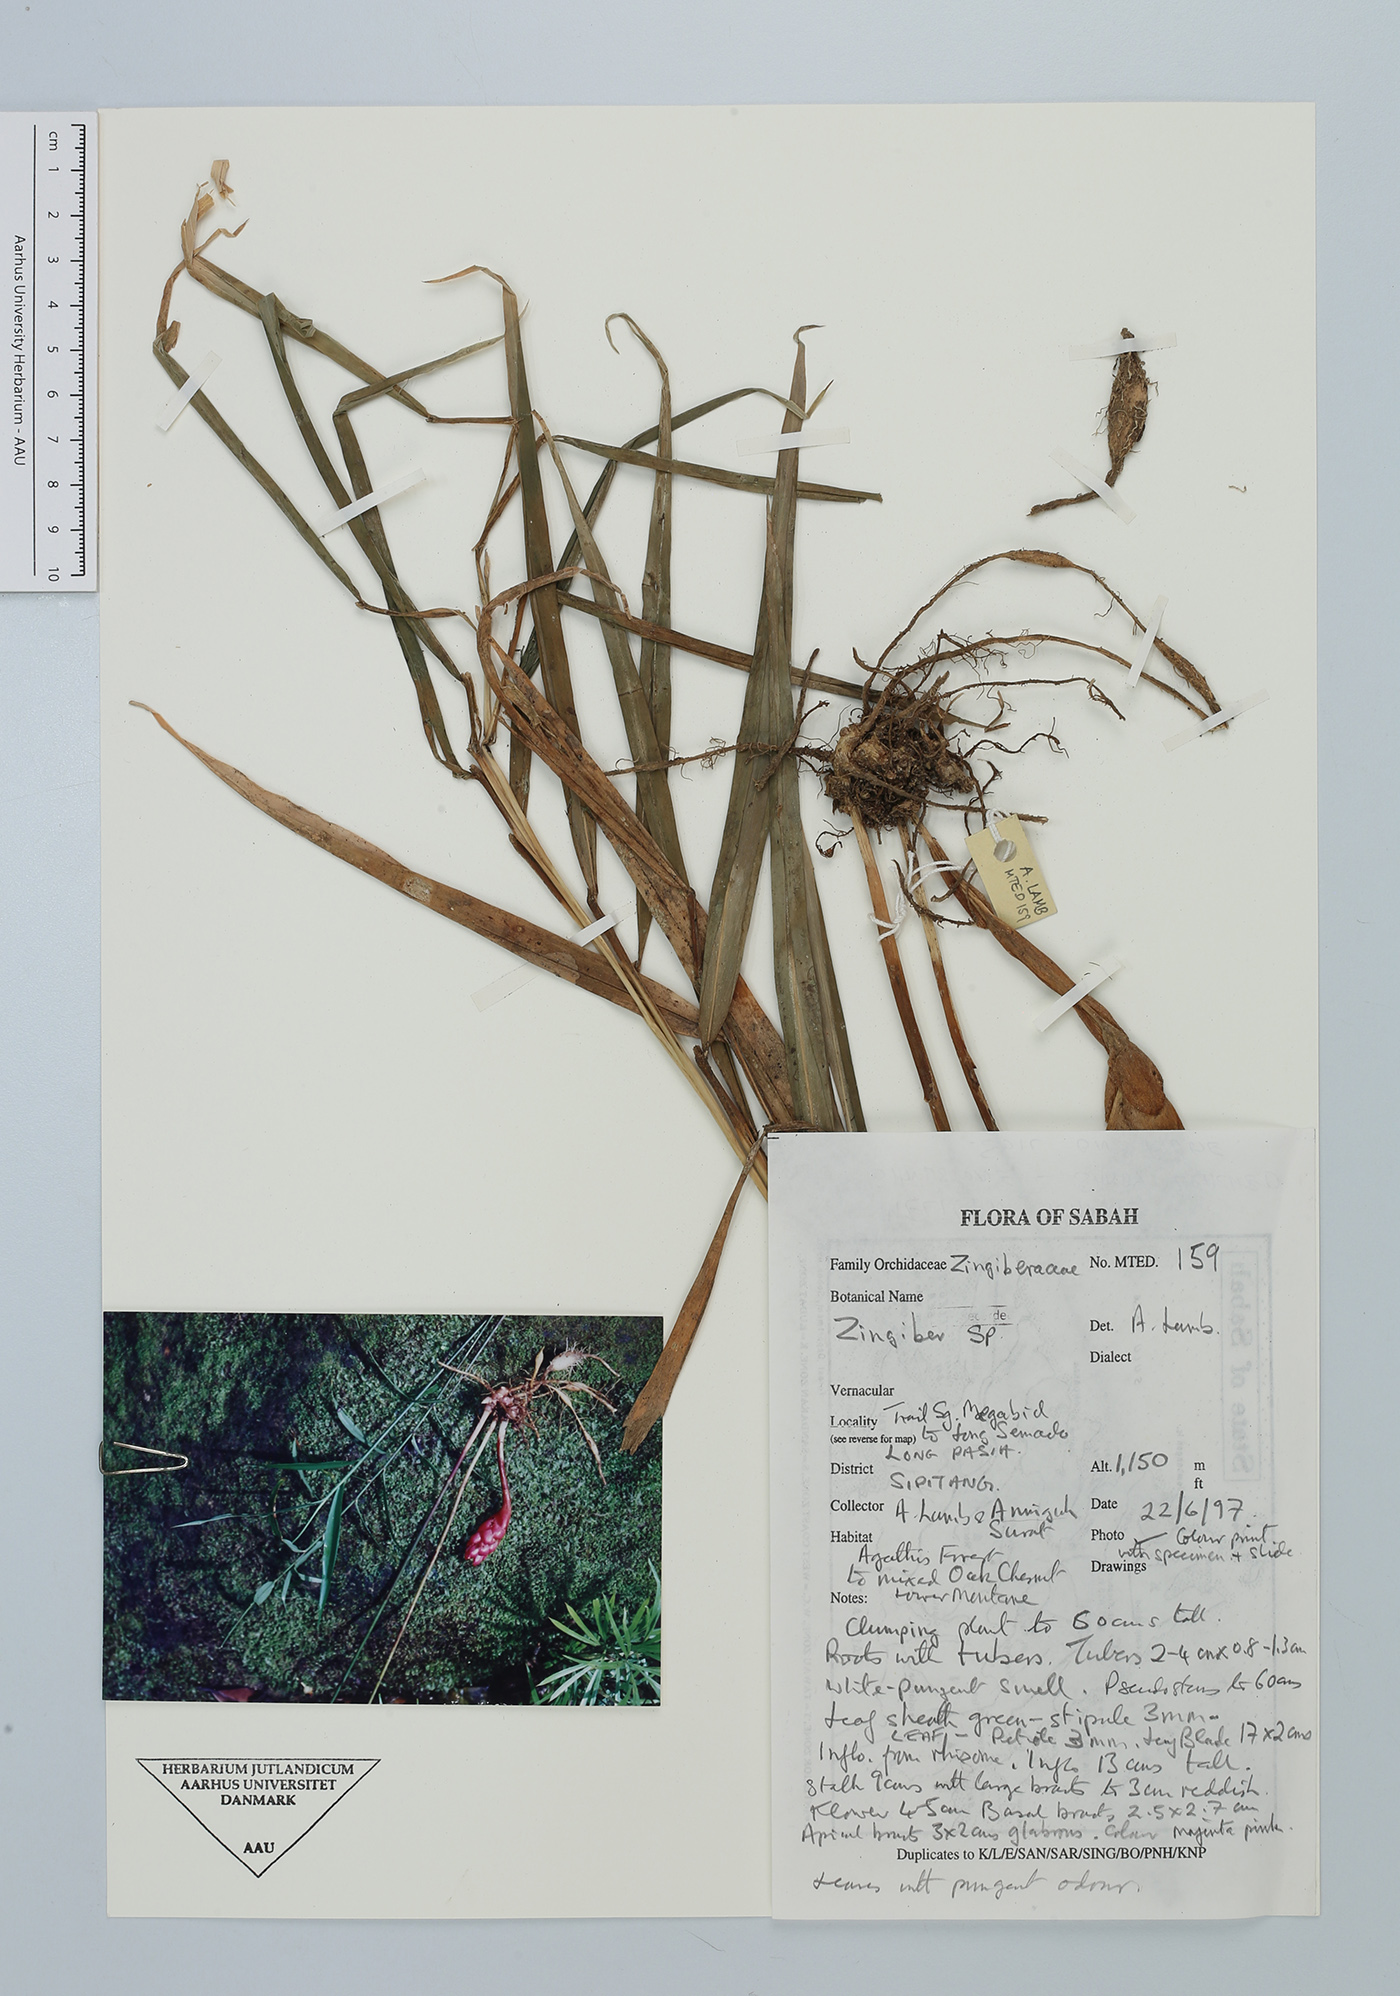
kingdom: Plantae
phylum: Tracheophyta
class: Liliopsida
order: Zingiberales
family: Zingiberaceae
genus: Zingiber
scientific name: Zingiber
